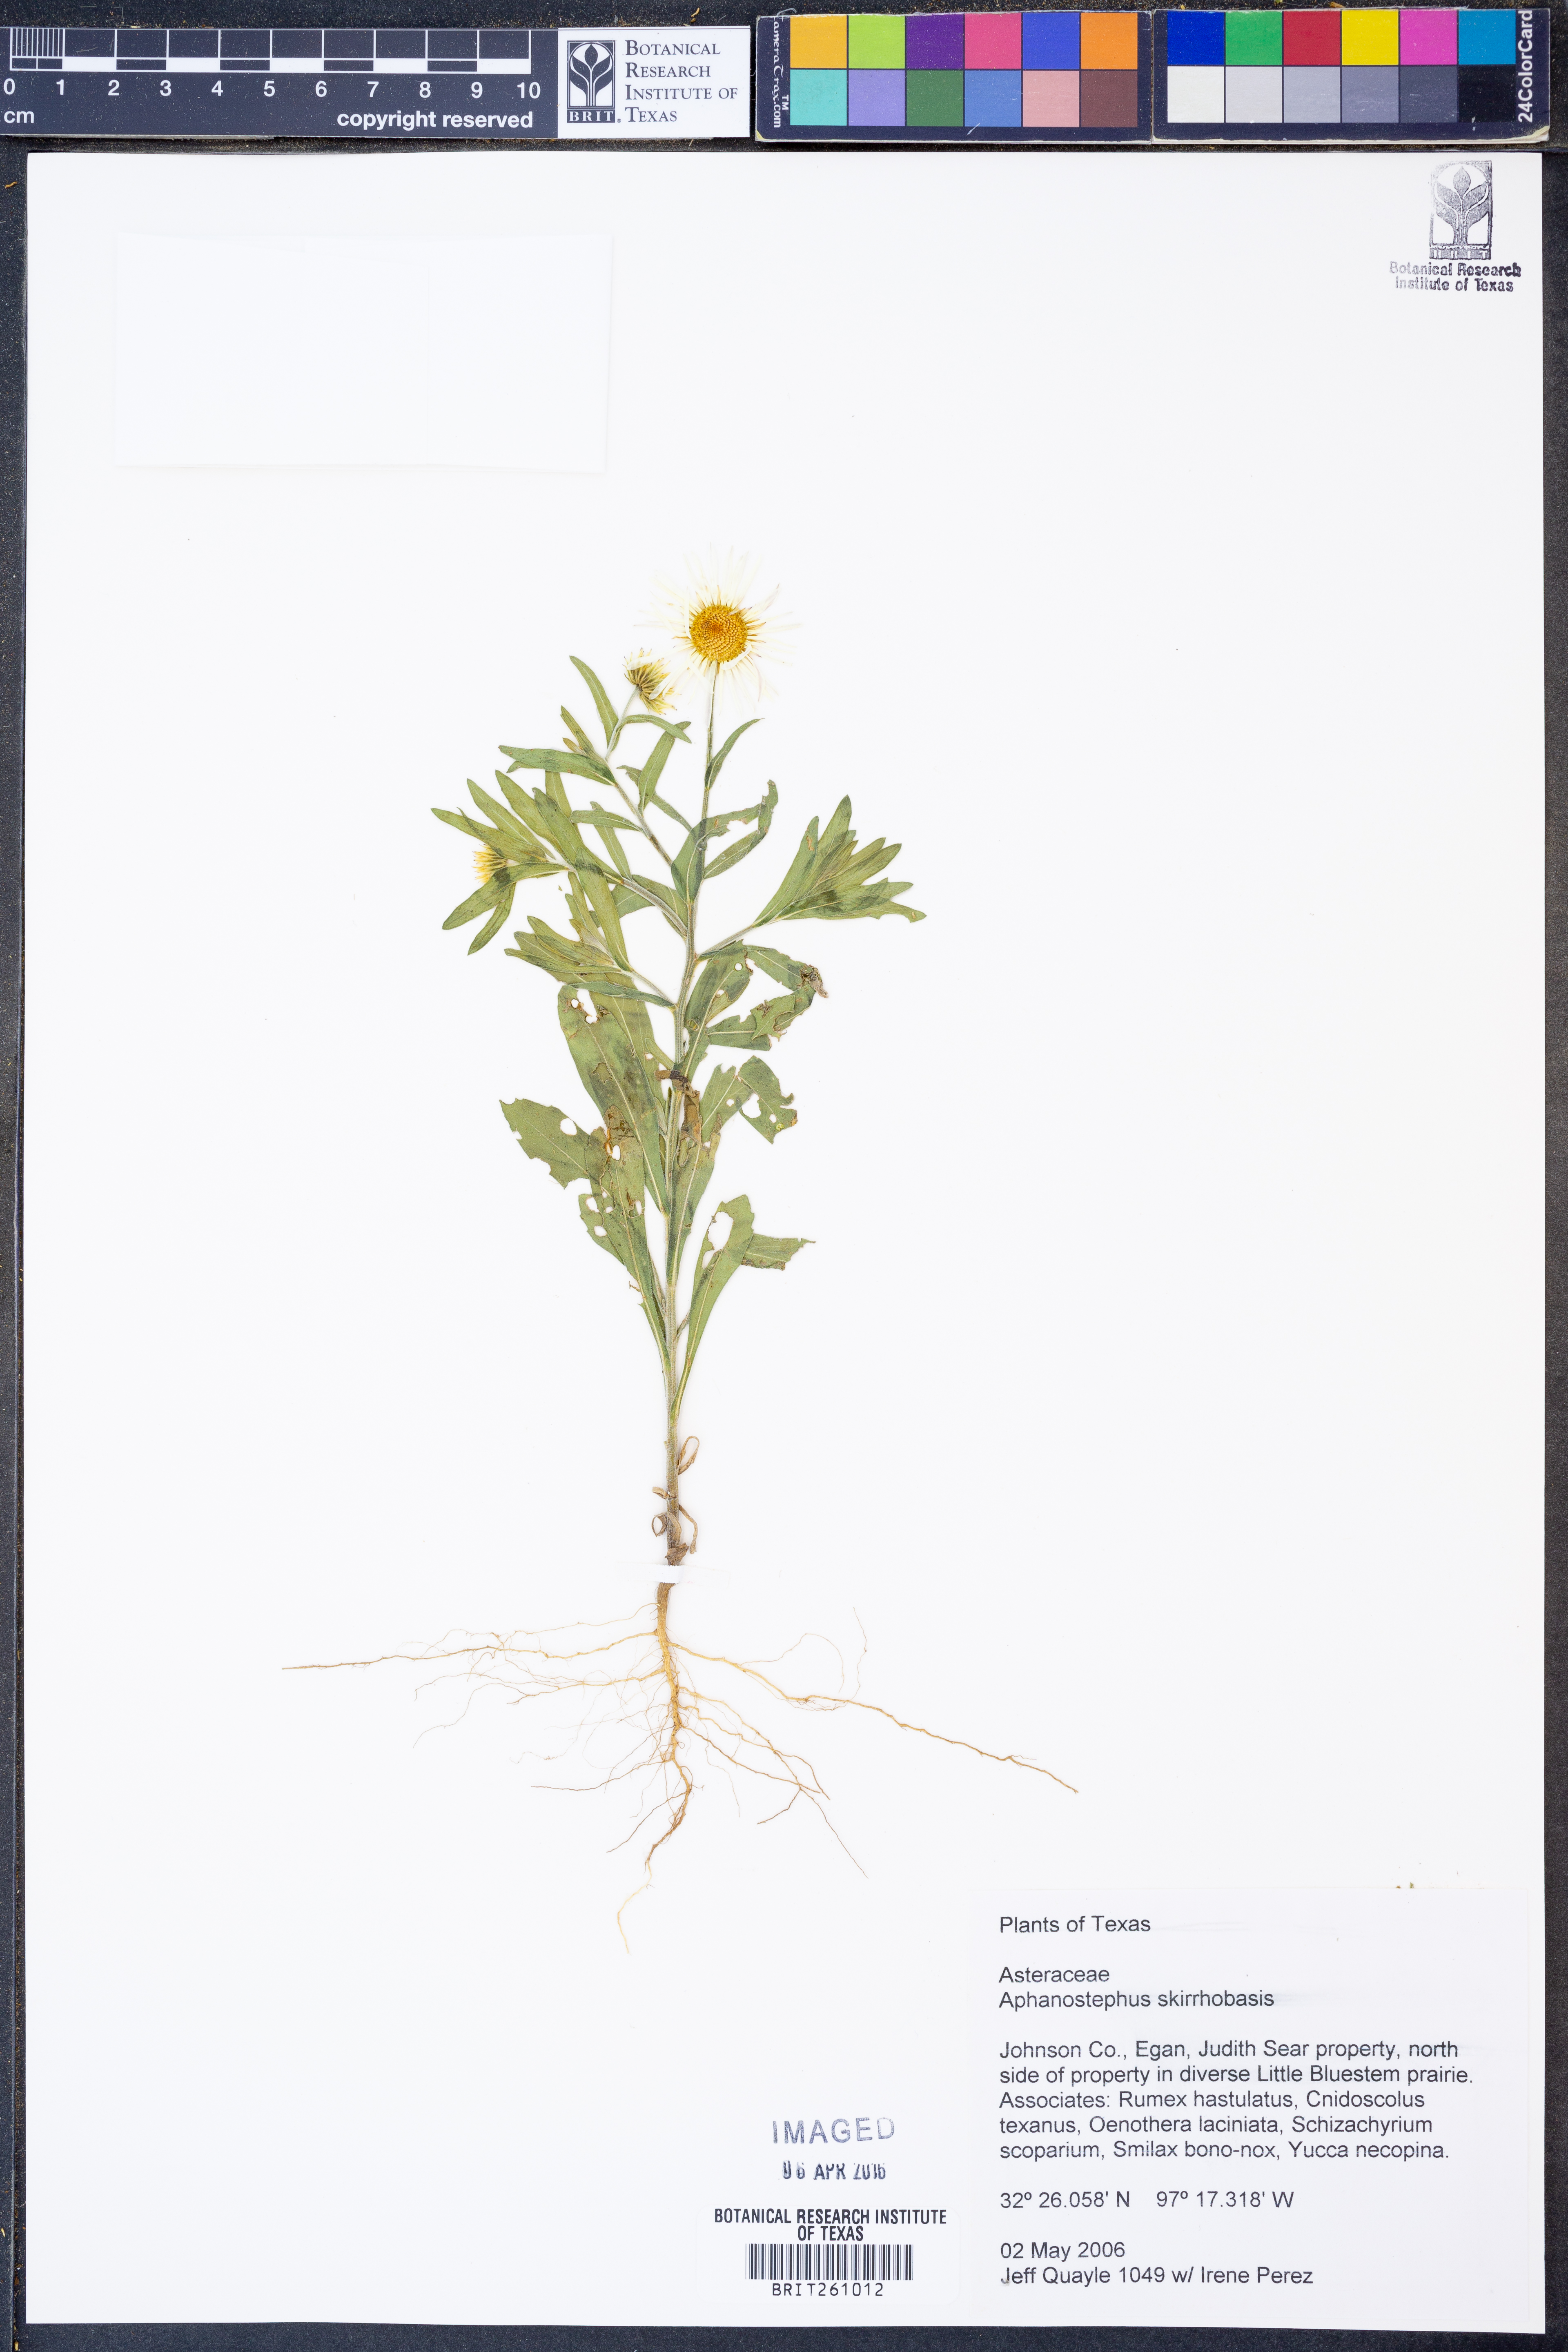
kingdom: Plantae
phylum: Tracheophyta
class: Magnoliopsida
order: Asterales
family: Asteraceae
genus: Aphanostephus
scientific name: Aphanostephus skirrhobasis
